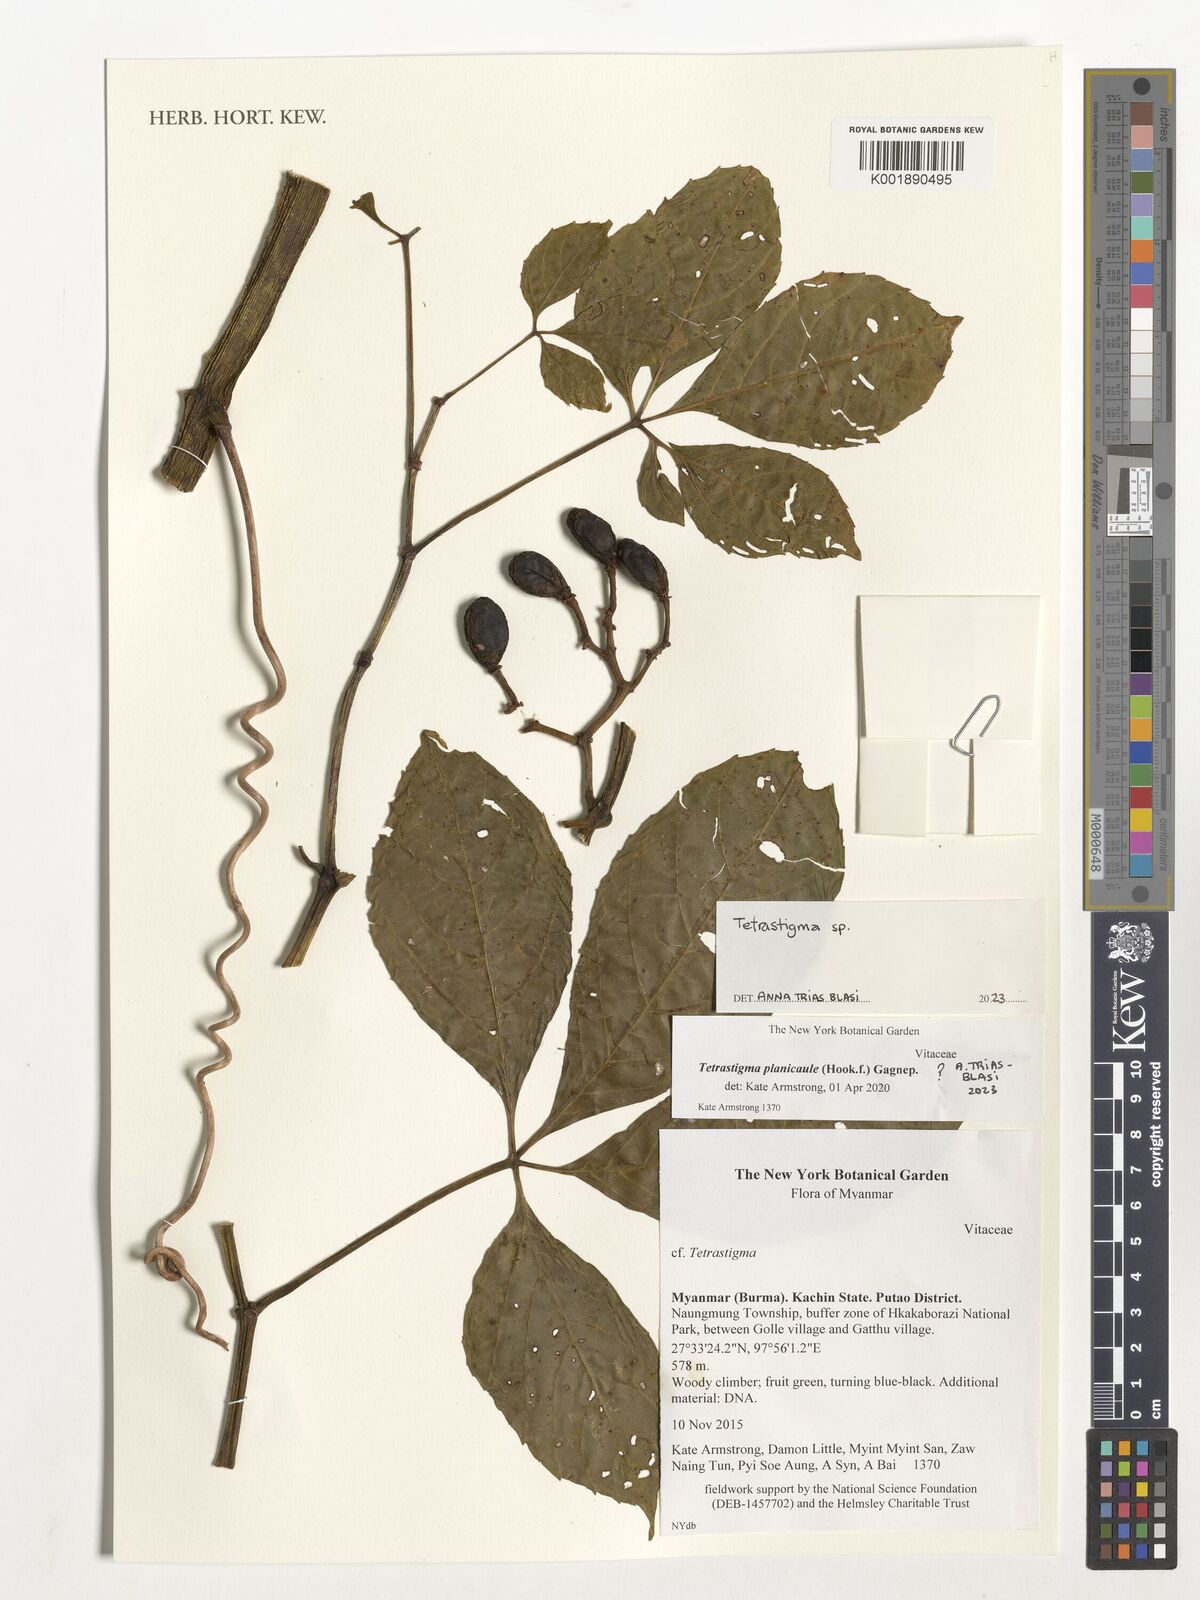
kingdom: Plantae
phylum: Tracheophyta
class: Magnoliopsida
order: Vitales
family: Vitaceae
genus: Tetrastigma
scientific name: Tetrastigma
